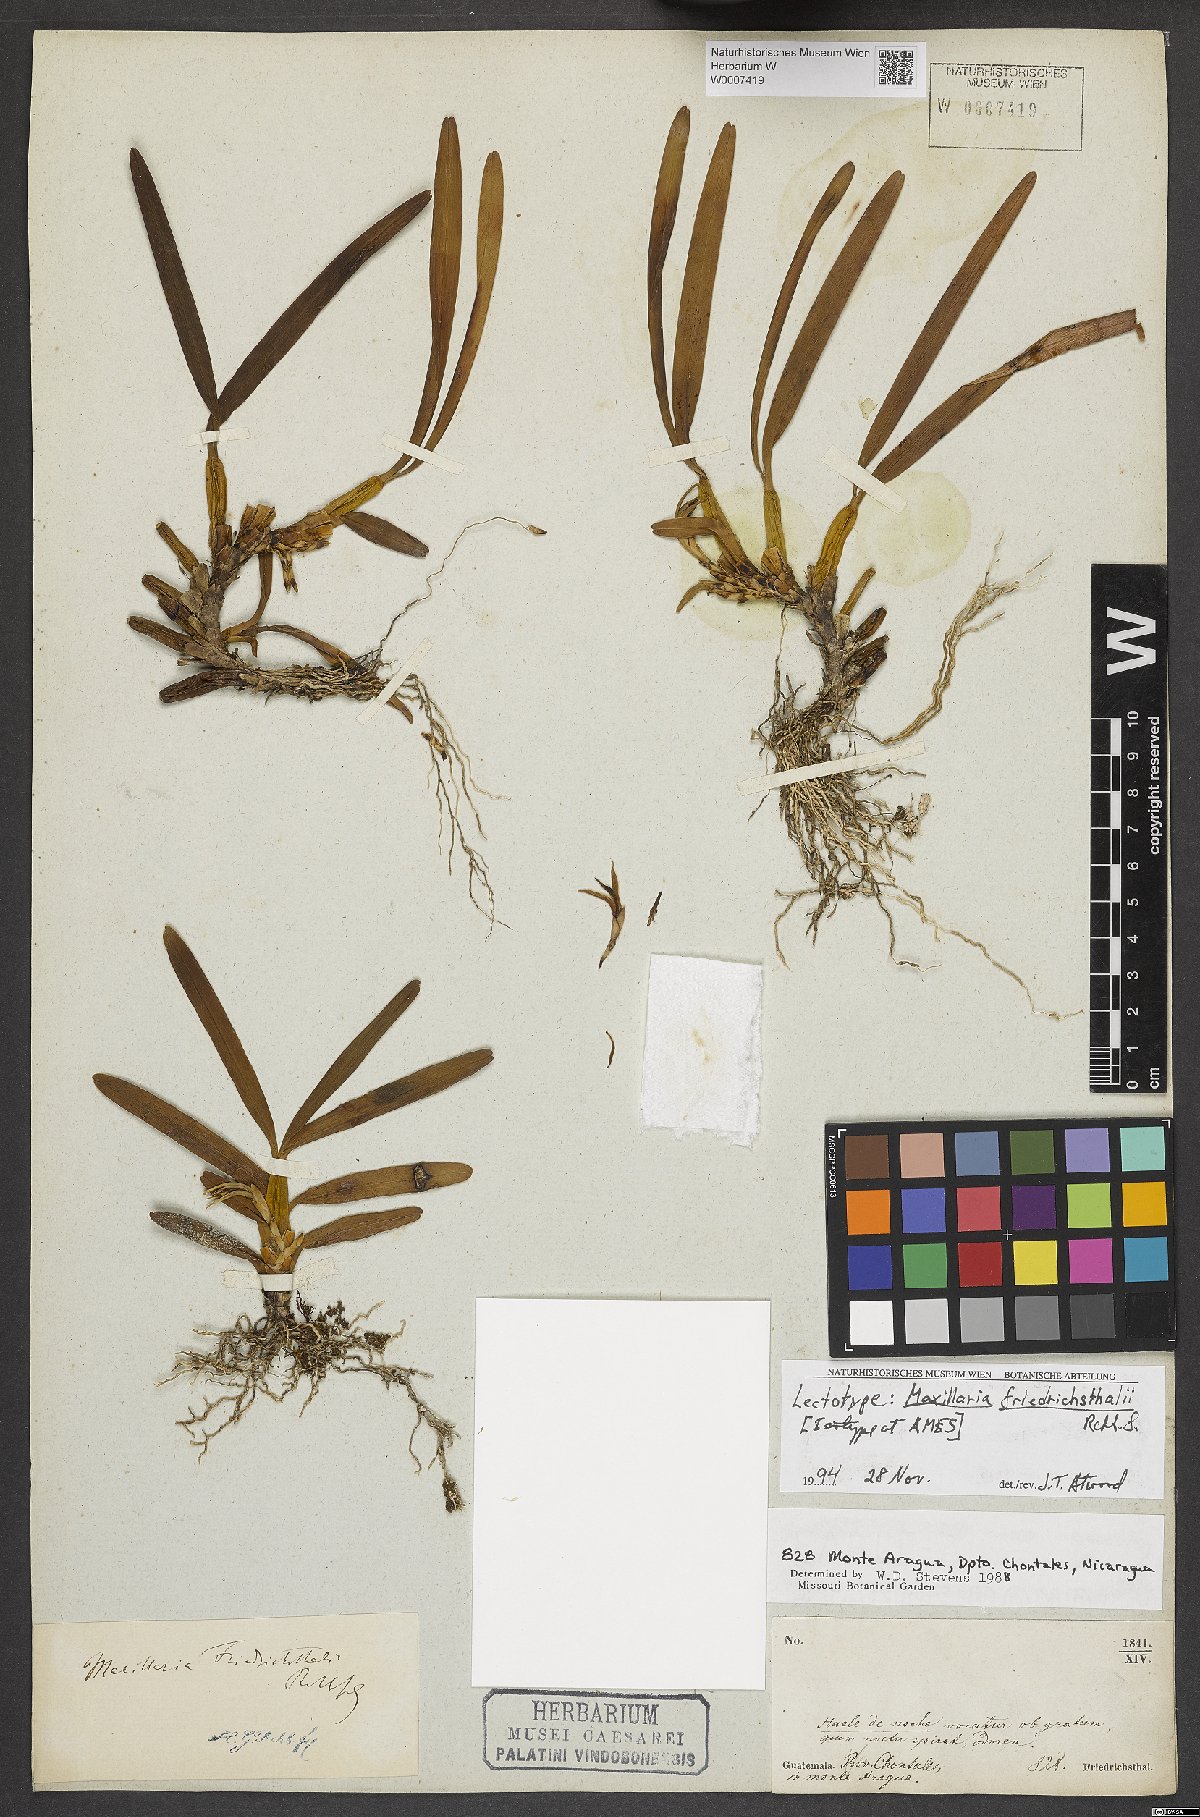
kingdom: Plantae
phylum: Tracheophyta
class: Liliopsida
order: Asparagales
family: Orchidaceae
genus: Maxillaria
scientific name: Maxillaria friedrichsthalii
